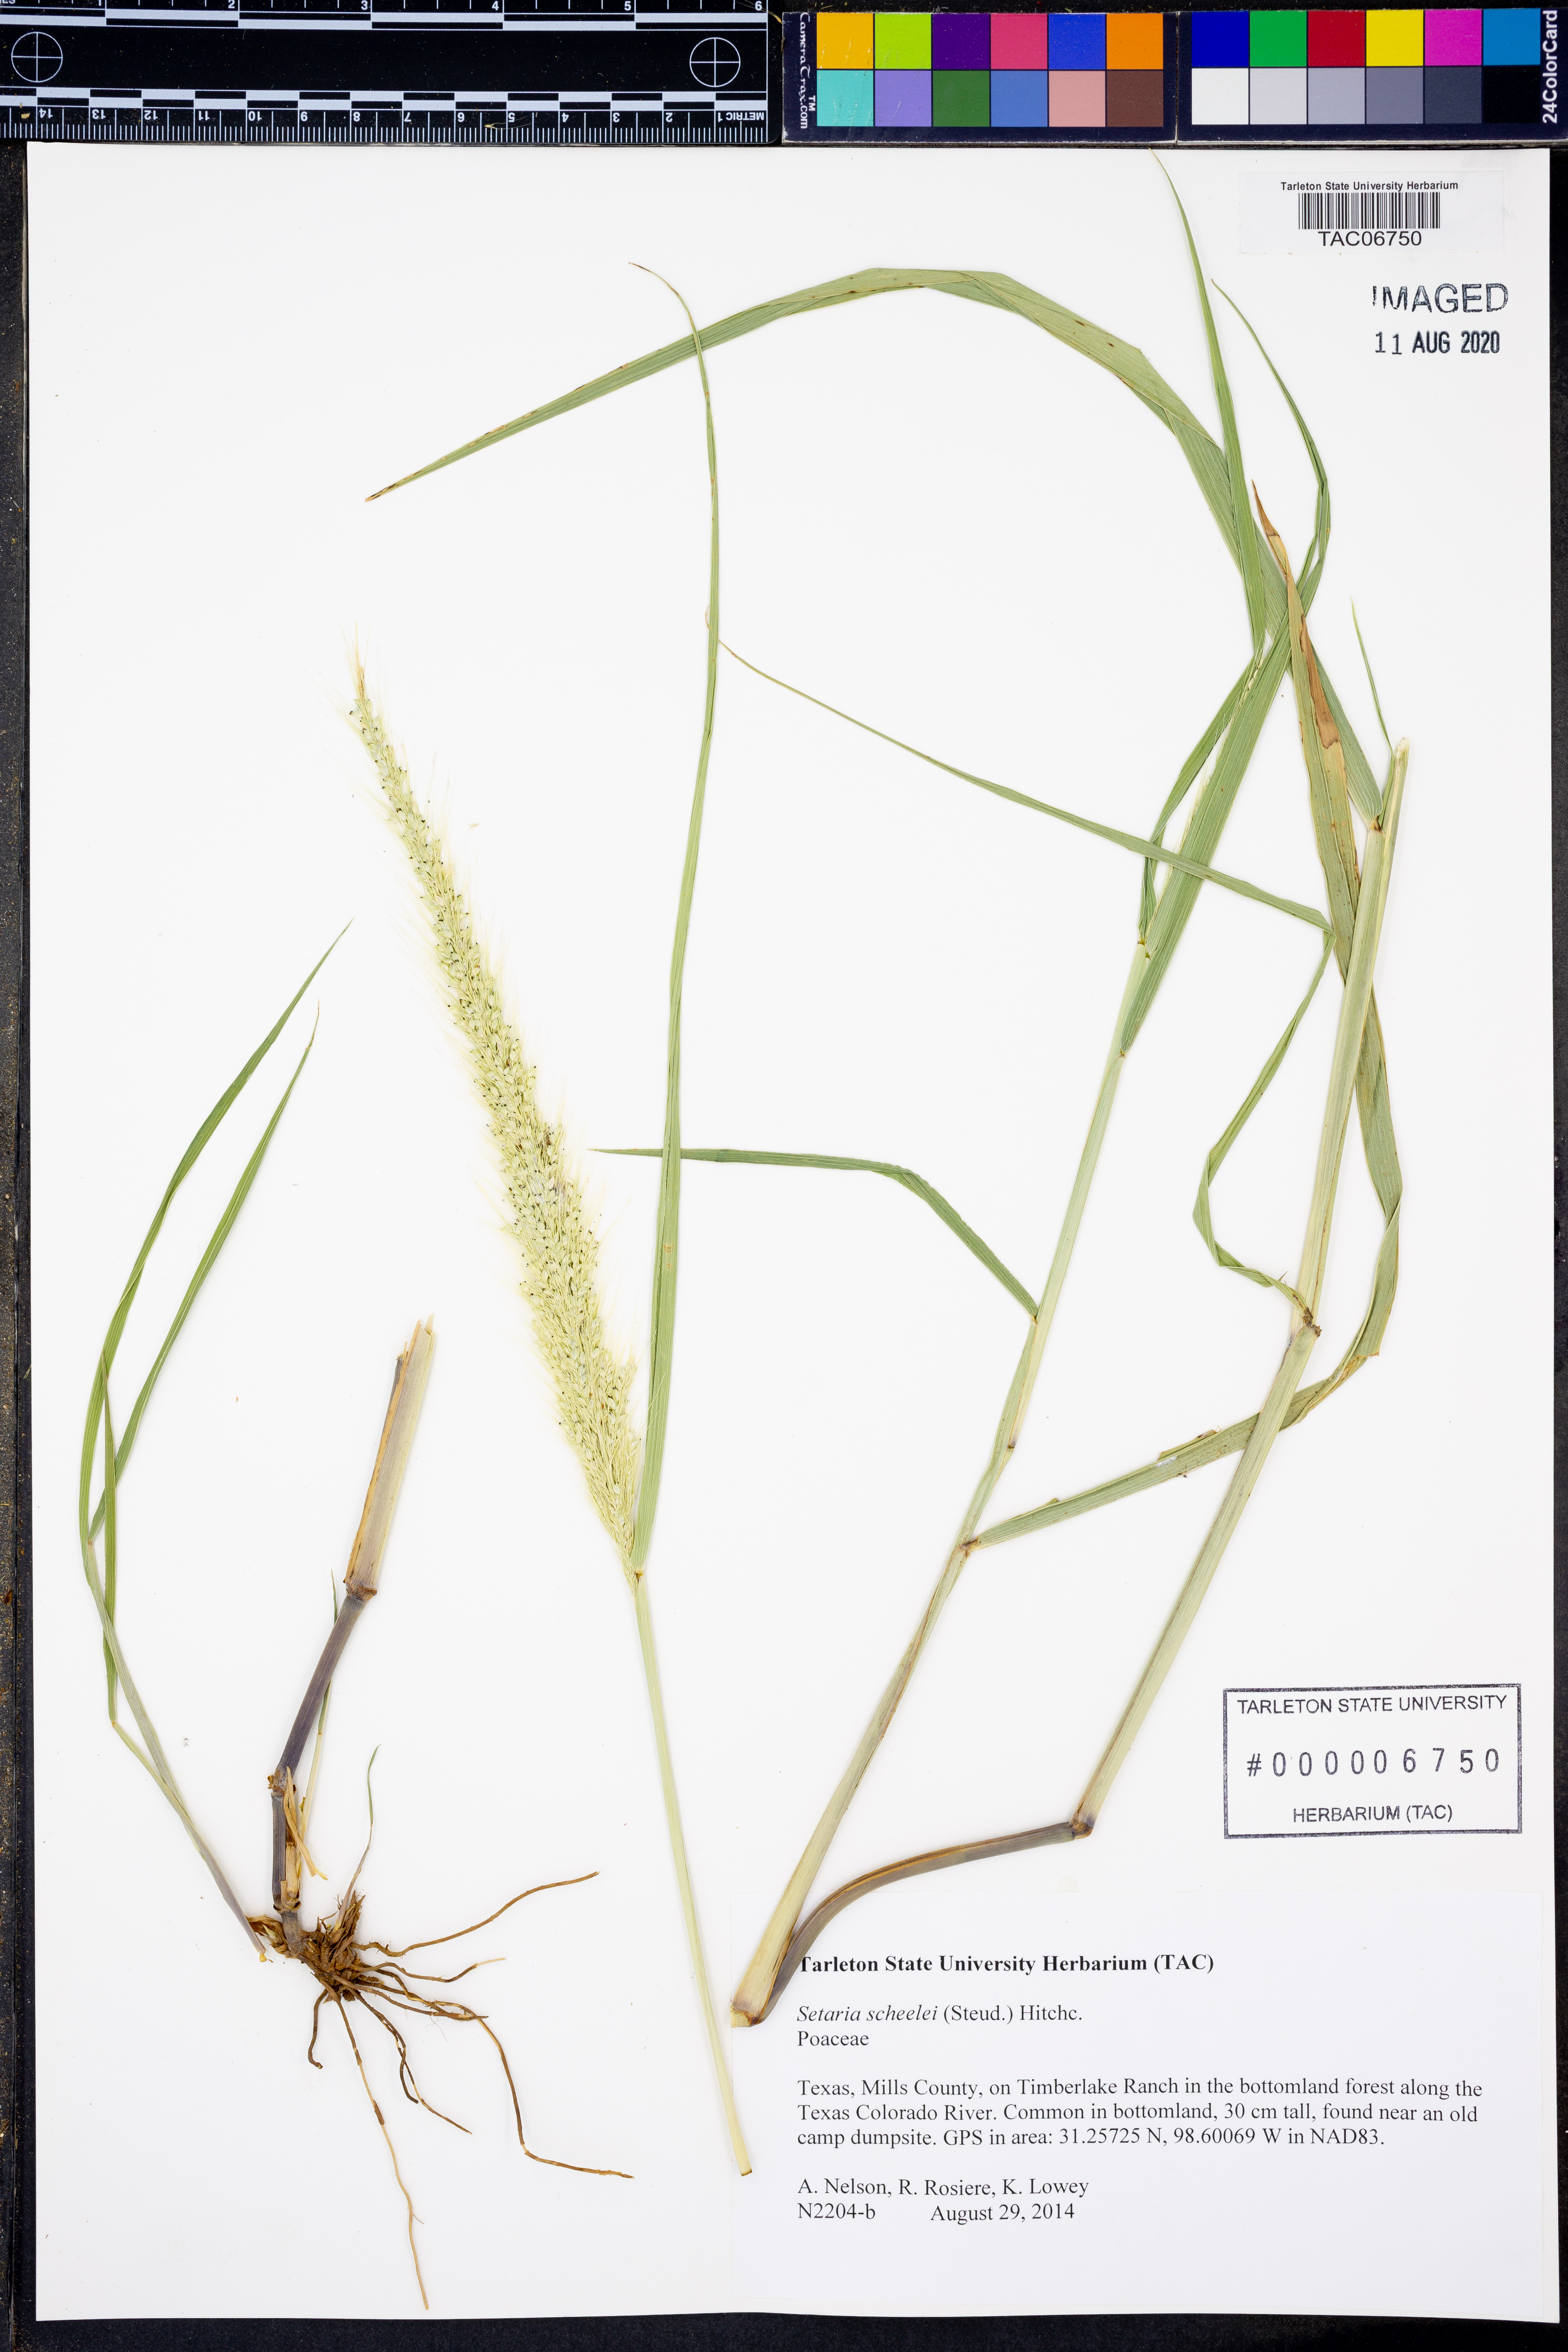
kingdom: Plantae
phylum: Tracheophyta
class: Liliopsida
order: Poales
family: Poaceae
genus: Setaria
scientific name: Setaria scheelei
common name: Southwestern bristle grass
